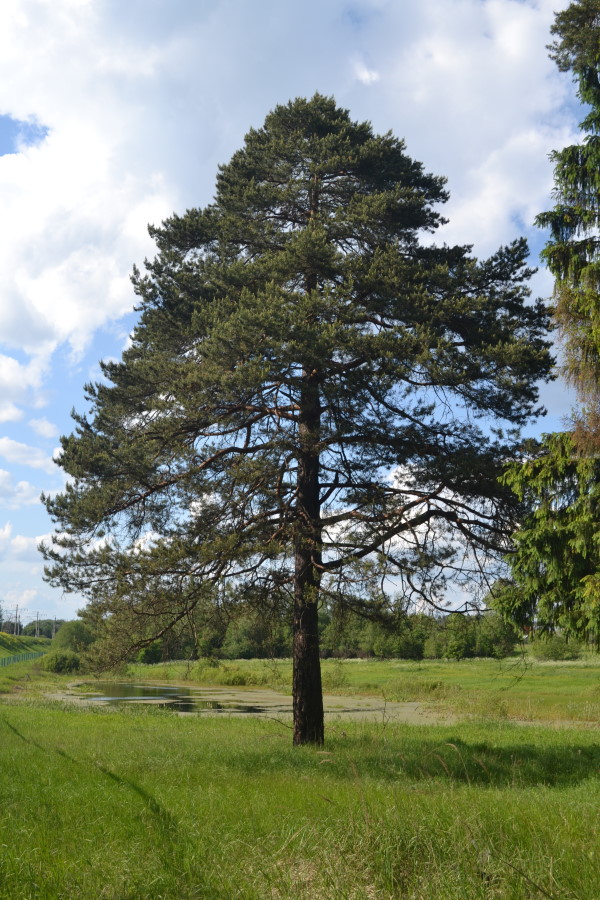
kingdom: Plantae
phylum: Tracheophyta
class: Pinopsida
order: Pinales
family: Pinaceae
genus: Pinus
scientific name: Pinus sylvestris
